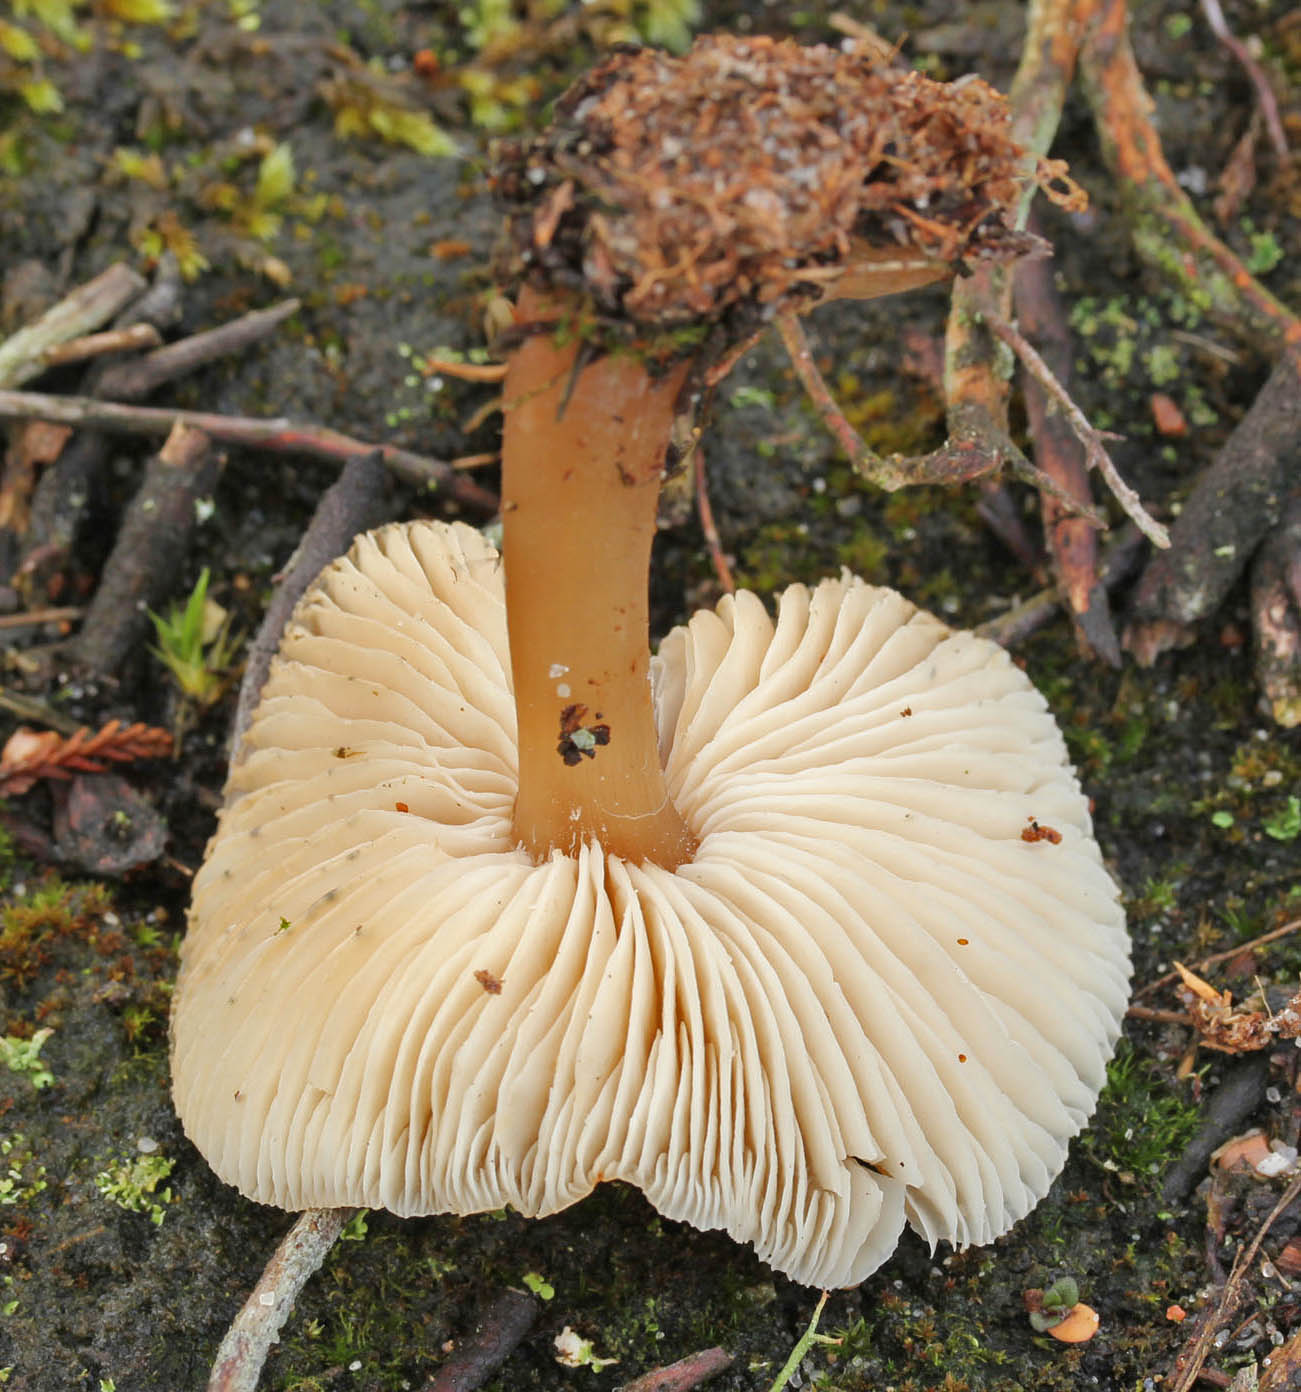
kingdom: Fungi
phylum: Basidiomycota
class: Agaricomycetes
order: Agaricales
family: Omphalotaceae
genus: Rhodocollybia
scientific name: Rhodocollybia asema
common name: horngrå fladhat
